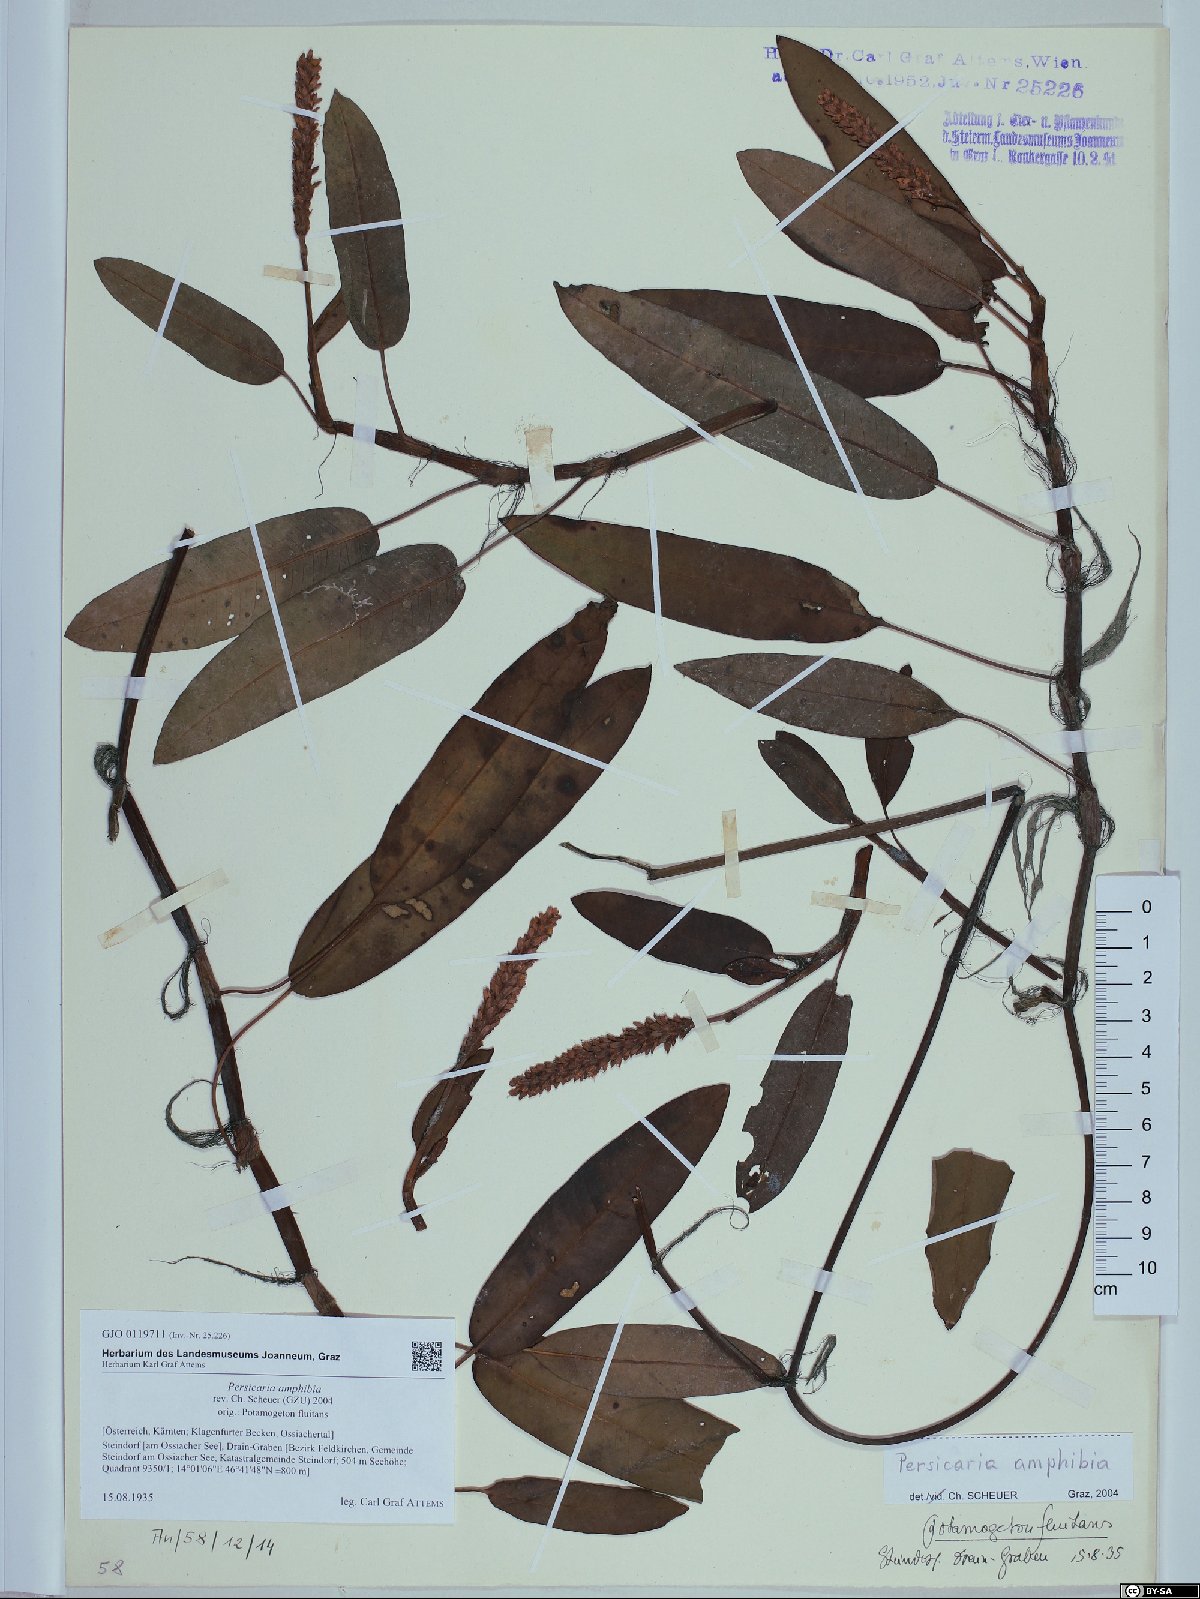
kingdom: Plantae
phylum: Tracheophyta
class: Magnoliopsida
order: Caryophyllales
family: Polygonaceae
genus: Persicaria
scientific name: Persicaria amphibia
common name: Amphibious bistort
